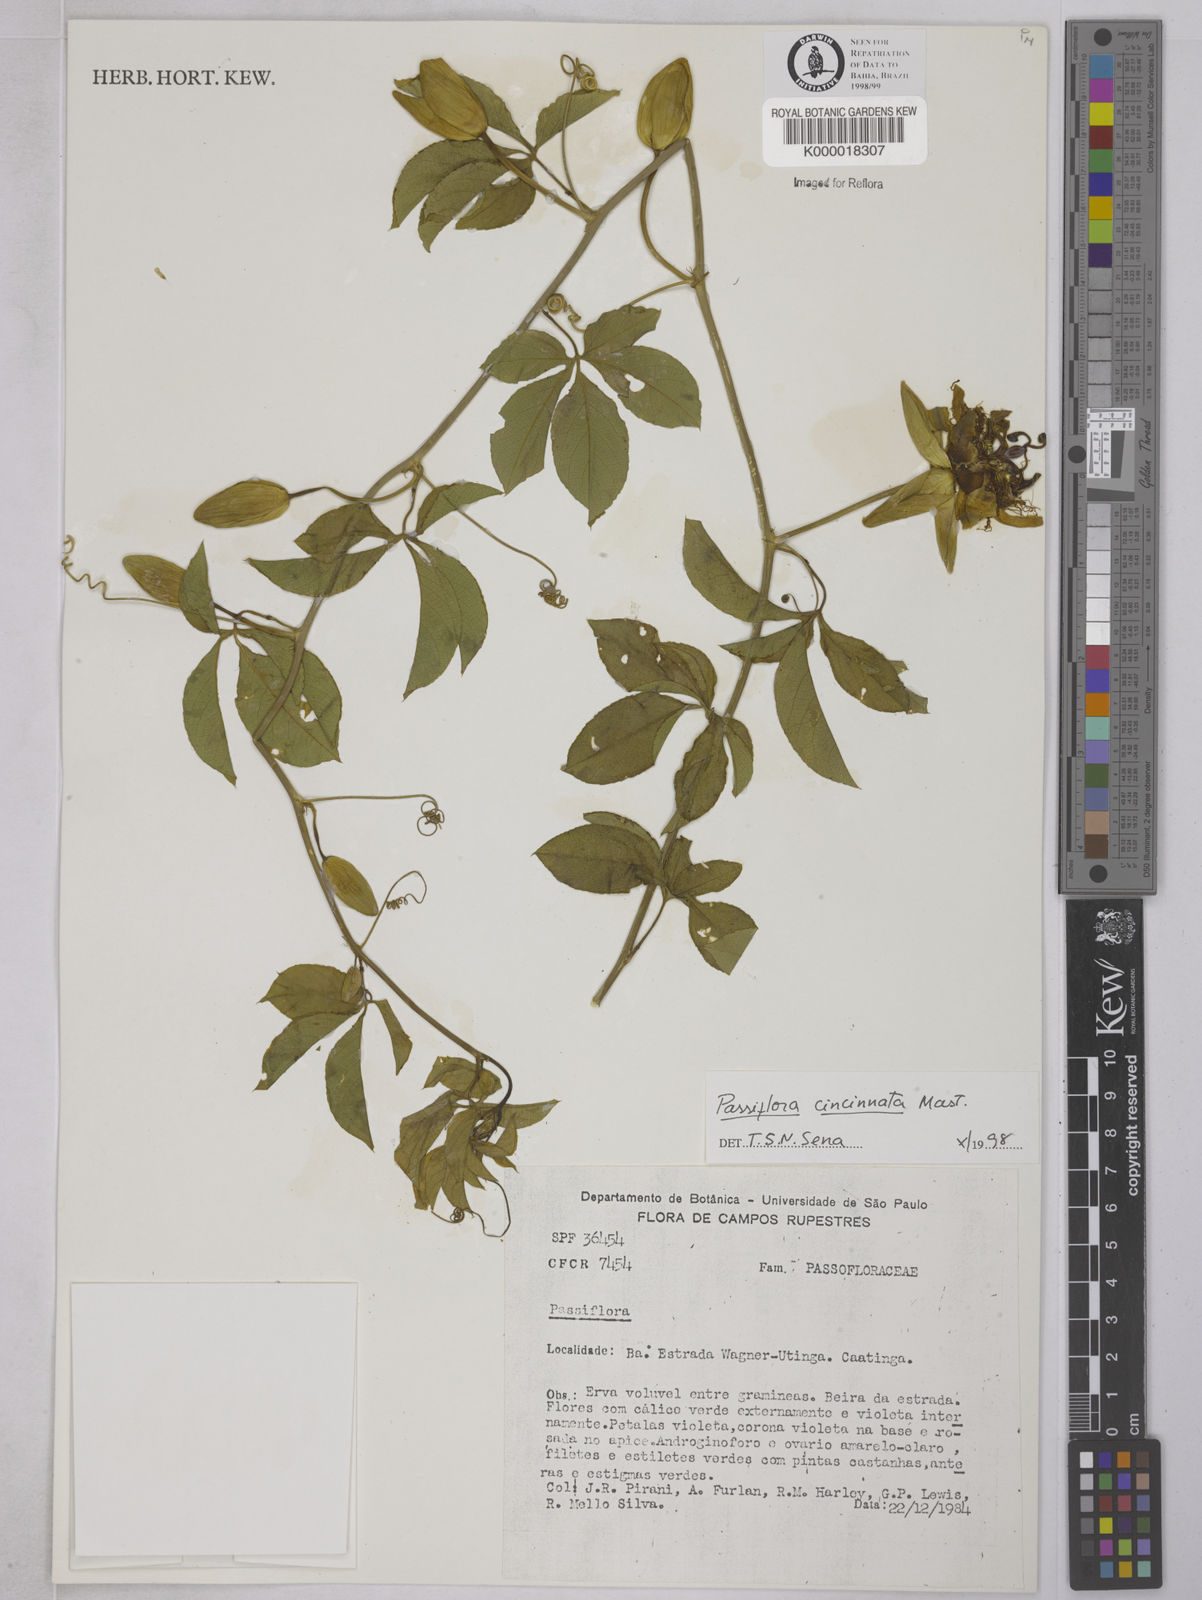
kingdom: Plantae
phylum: Tracheophyta
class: Magnoliopsida
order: Malpighiales
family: Passifloraceae
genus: Passiflora
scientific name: Passiflora cincinnata
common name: Crato passionvine
